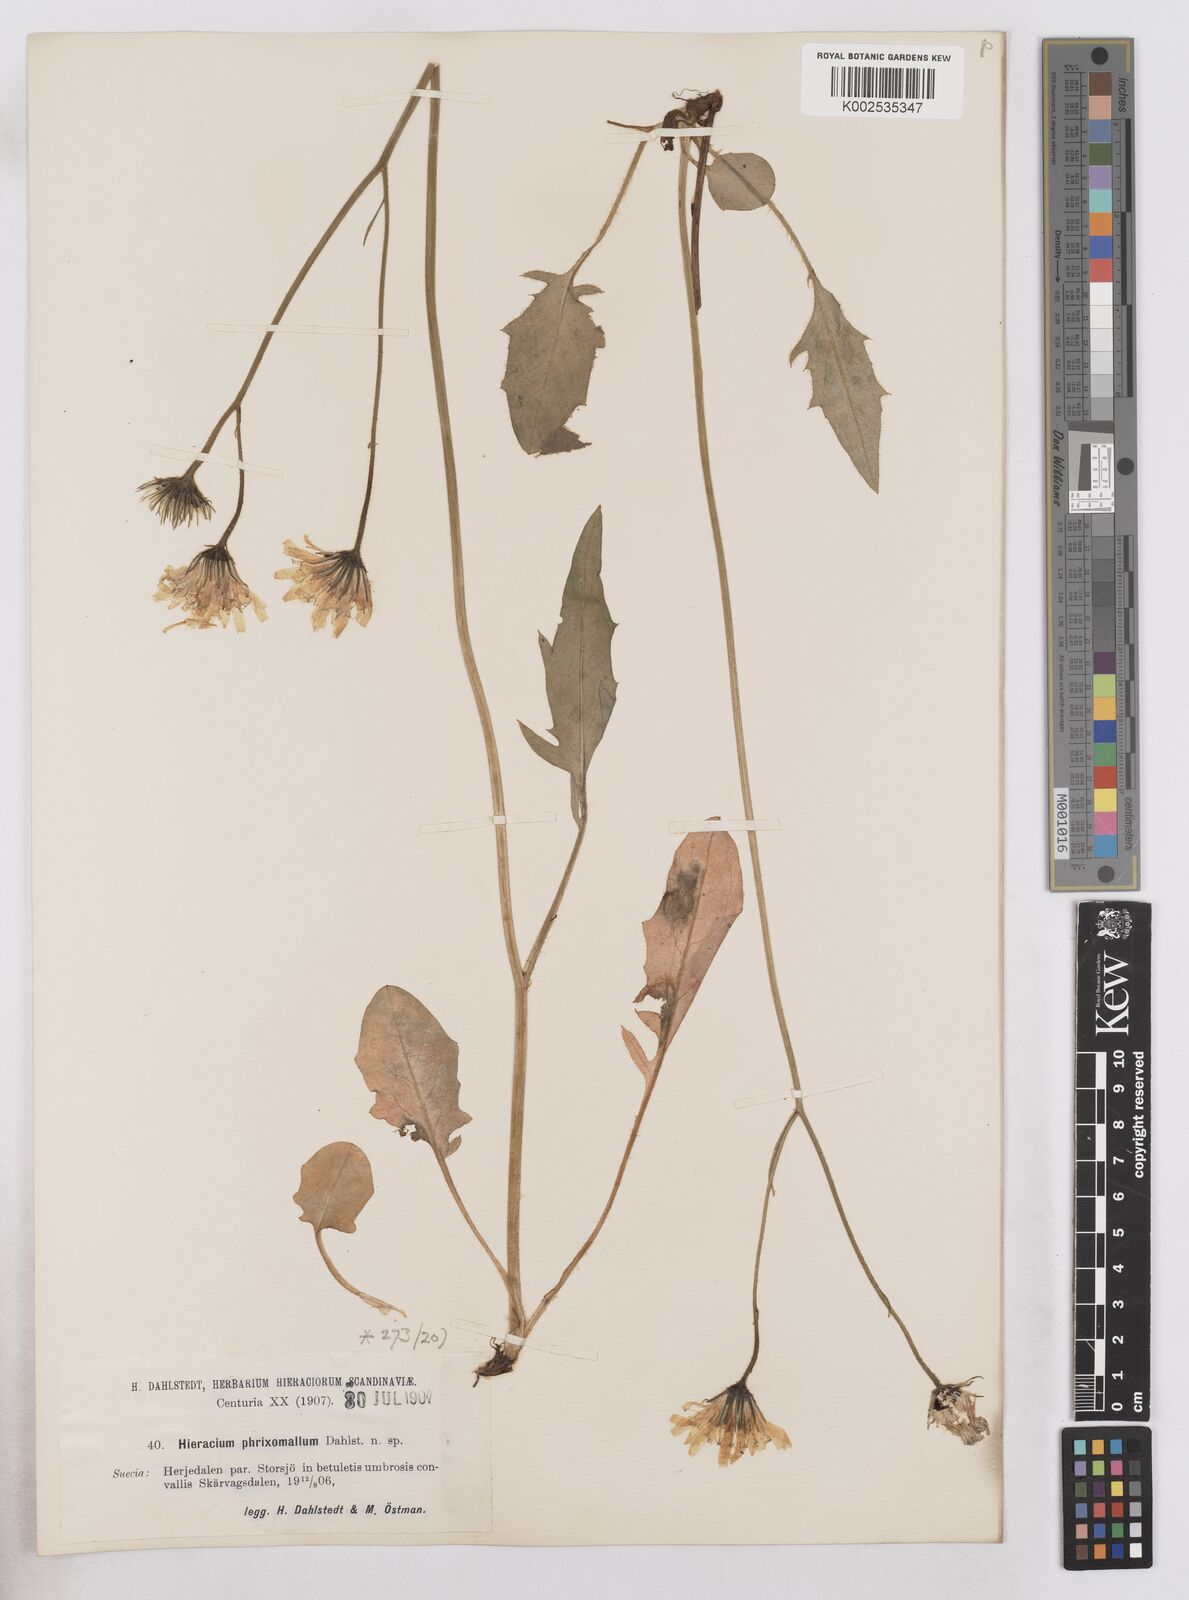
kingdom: Plantae
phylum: Tracheophyta
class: Magnoliopsida
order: Asterales
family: Asteraceae
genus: Hieracium
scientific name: Hieracium conspurcans
